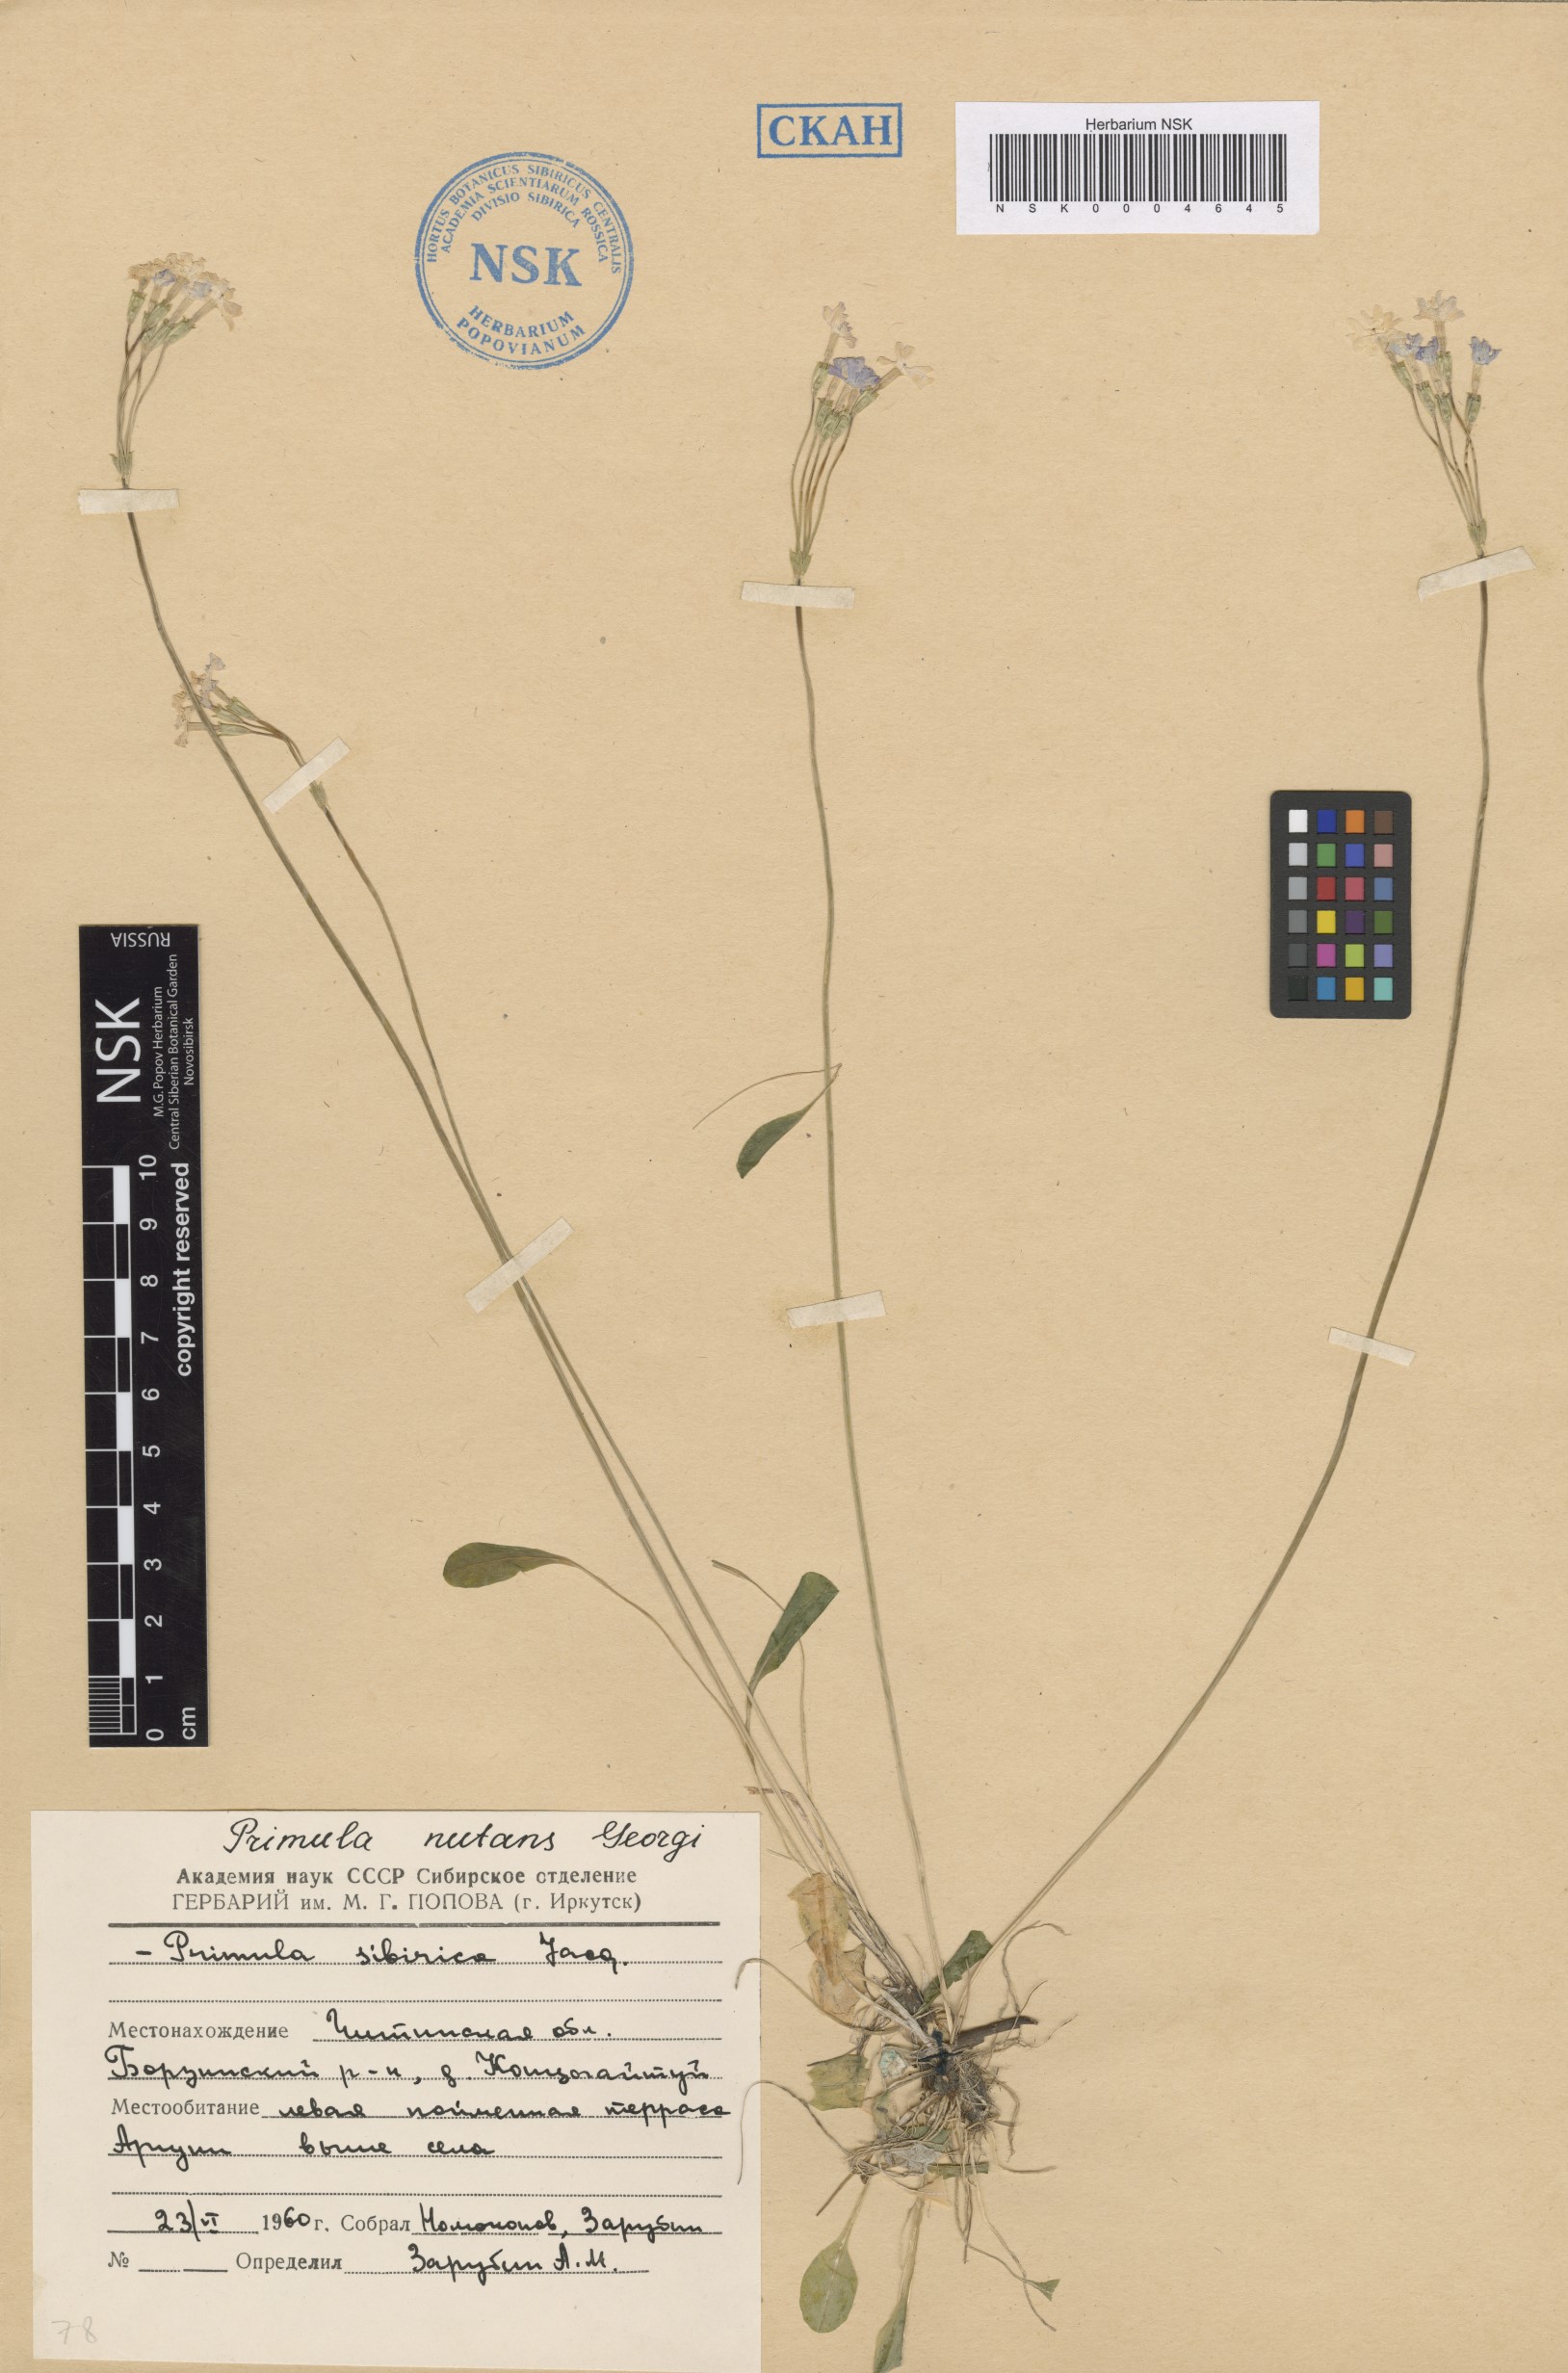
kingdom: Plantae
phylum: Tracheophyta
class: Magnoliopsida
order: Ericales
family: Primulaceae
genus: Primula
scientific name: Primula nutans
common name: Siberian primrose
